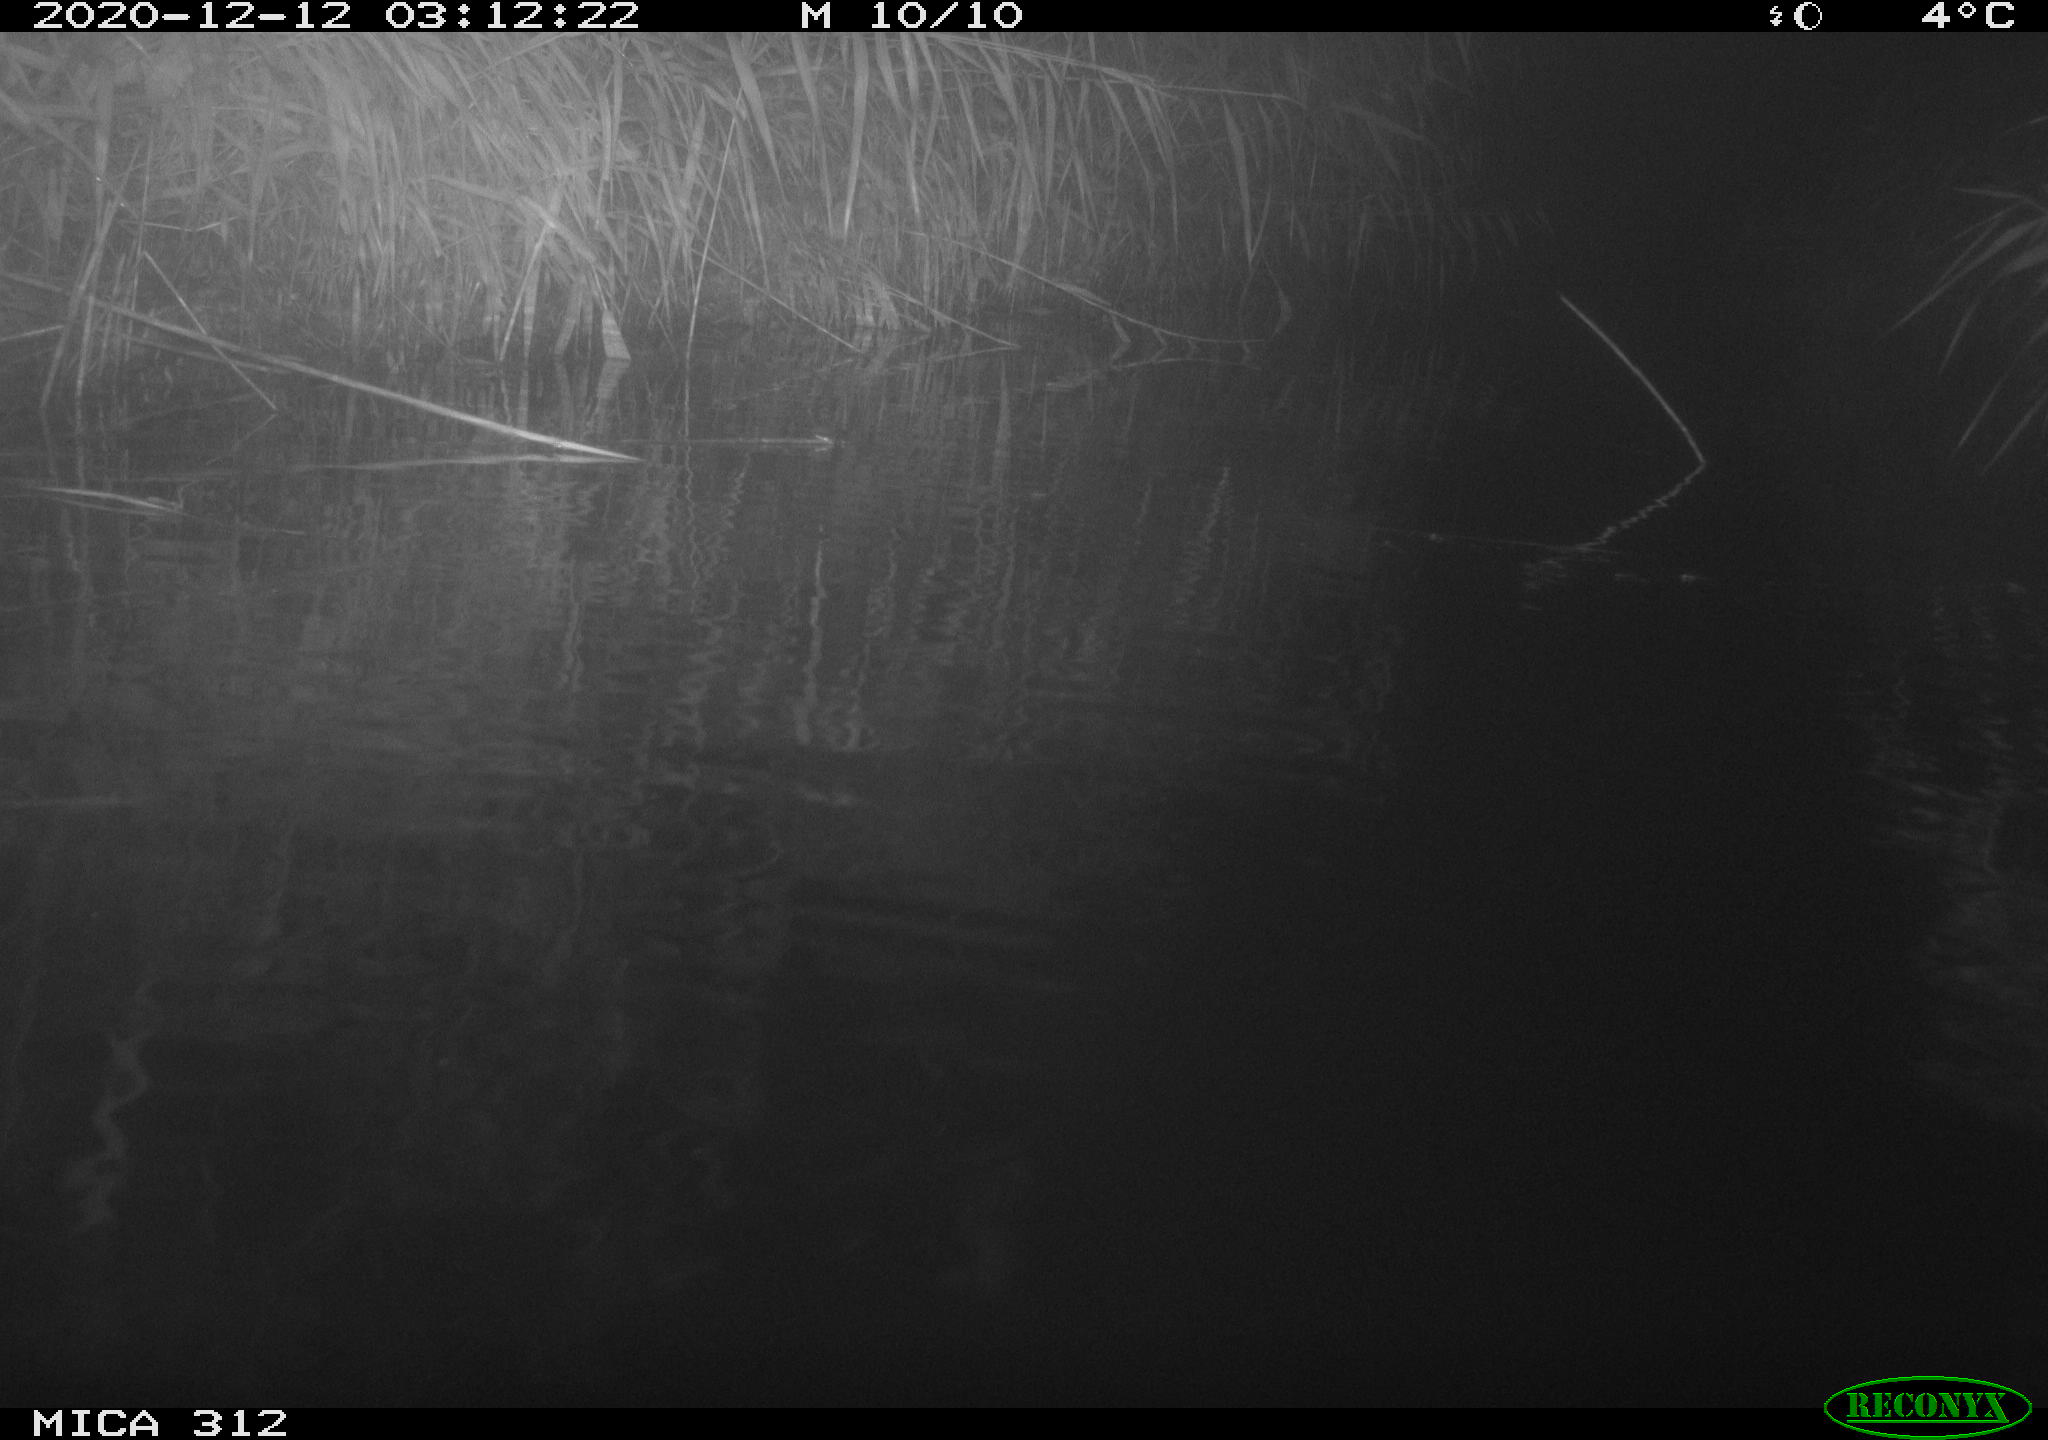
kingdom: Animalia
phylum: Chordata
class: Mammalia
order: Rodentia
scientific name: Rodentia
